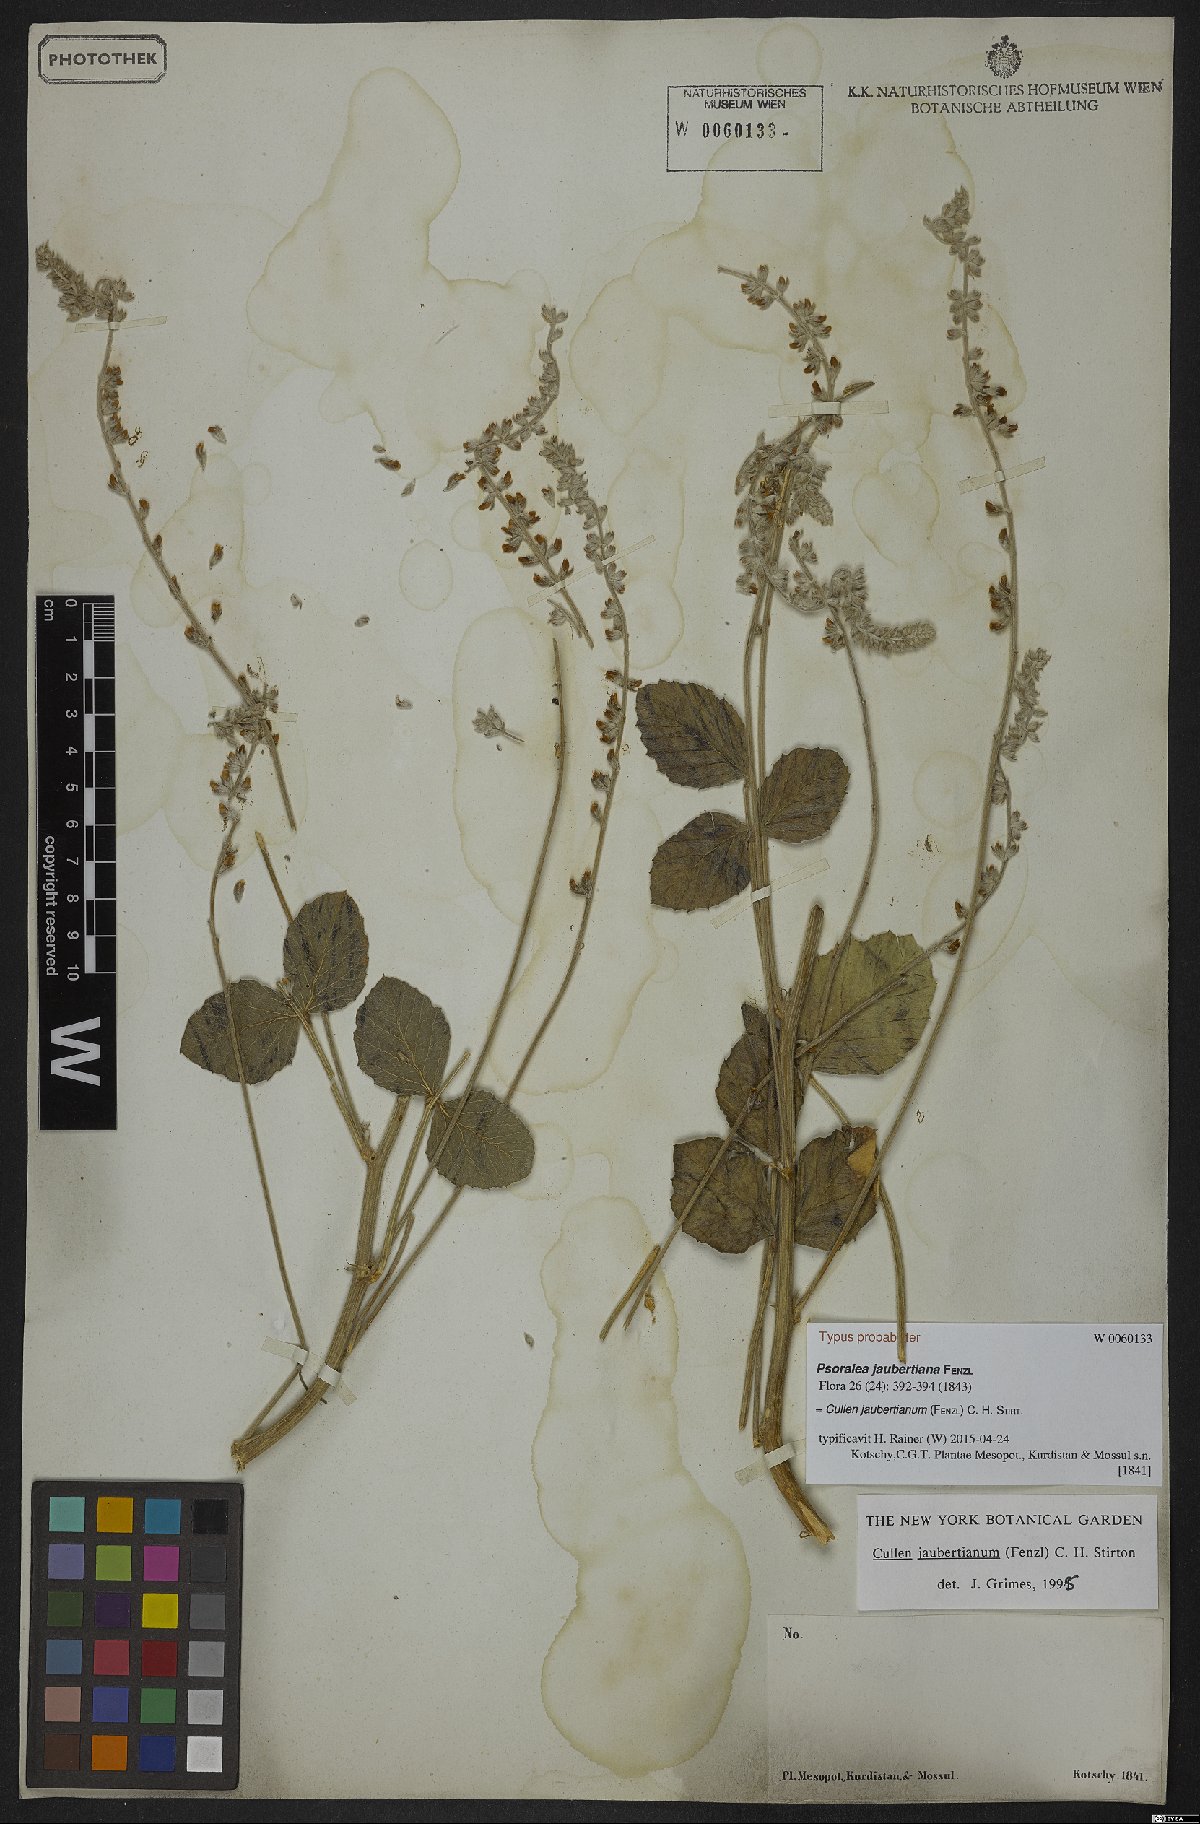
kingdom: Plantae
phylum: Tracheophyta
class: Magnoliopsida
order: Fabales
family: Fabaceae
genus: Cullen
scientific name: Cullen jaubertianum
